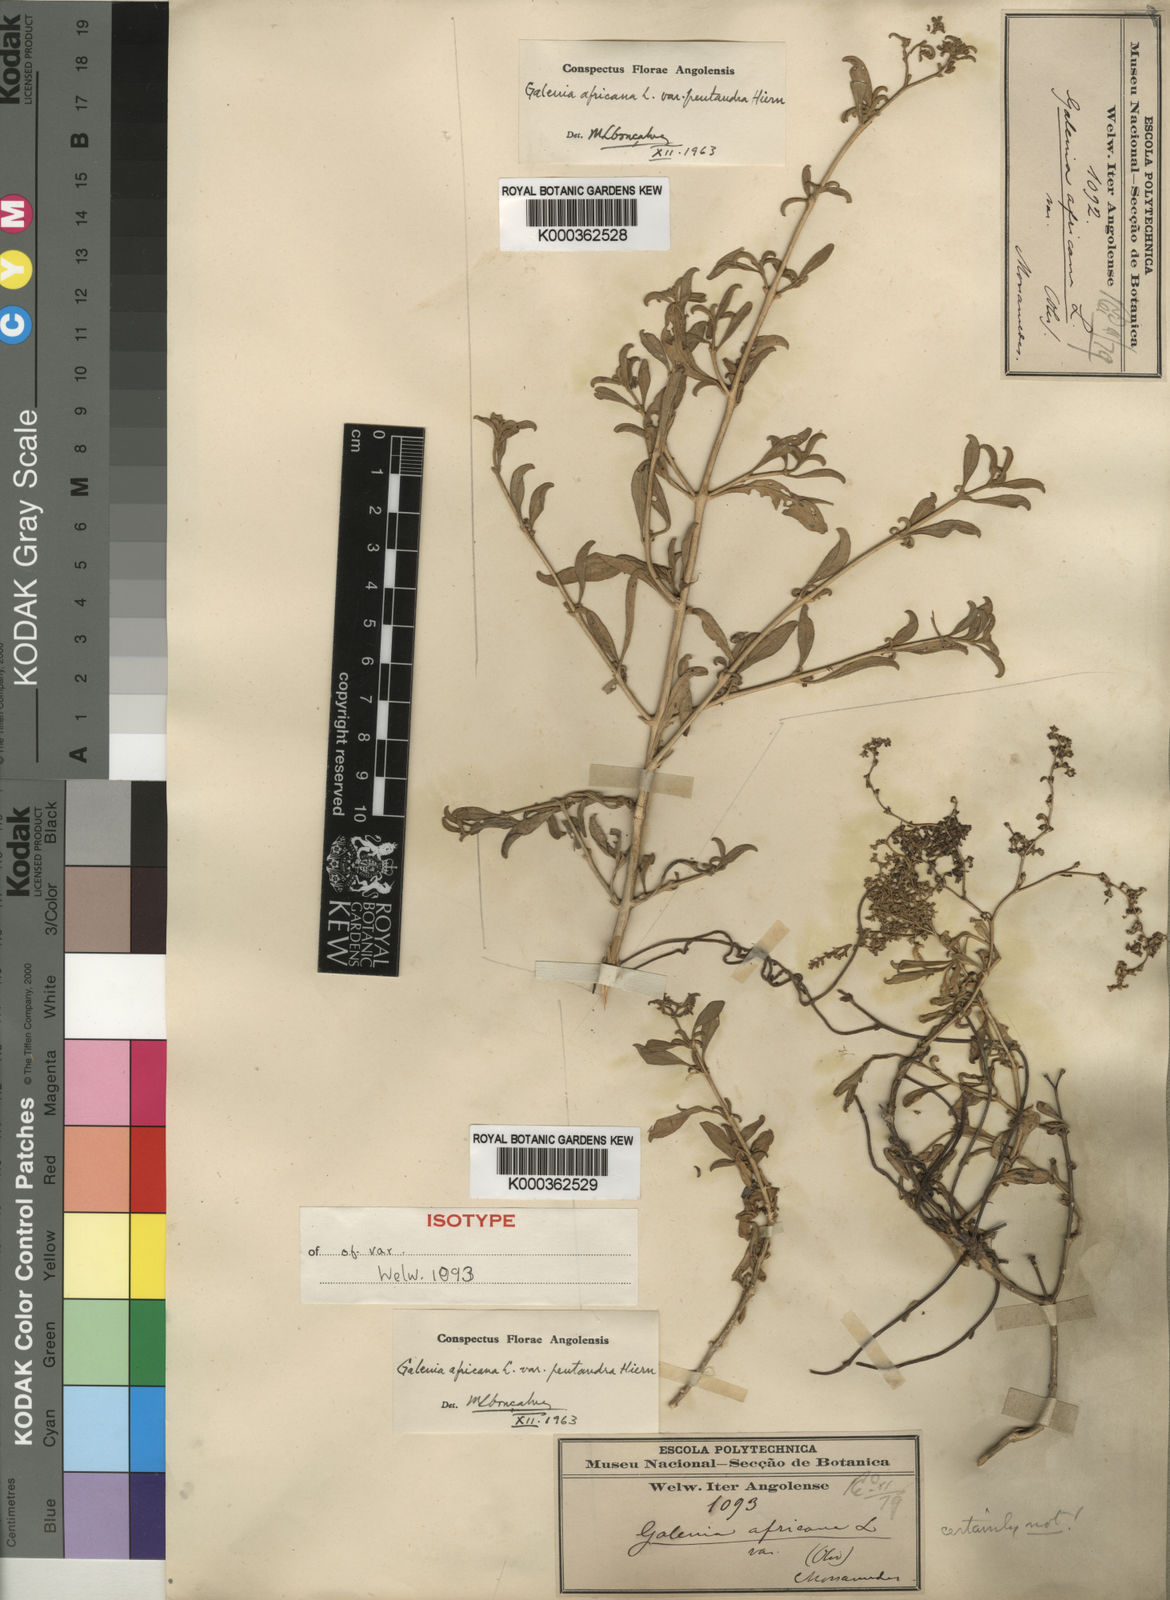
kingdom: Plantae
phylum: Tracheophyta
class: Magnoliopsida
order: Caryophyllales
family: Aizoaceae
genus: Aizoon
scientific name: Aizoon africanum
